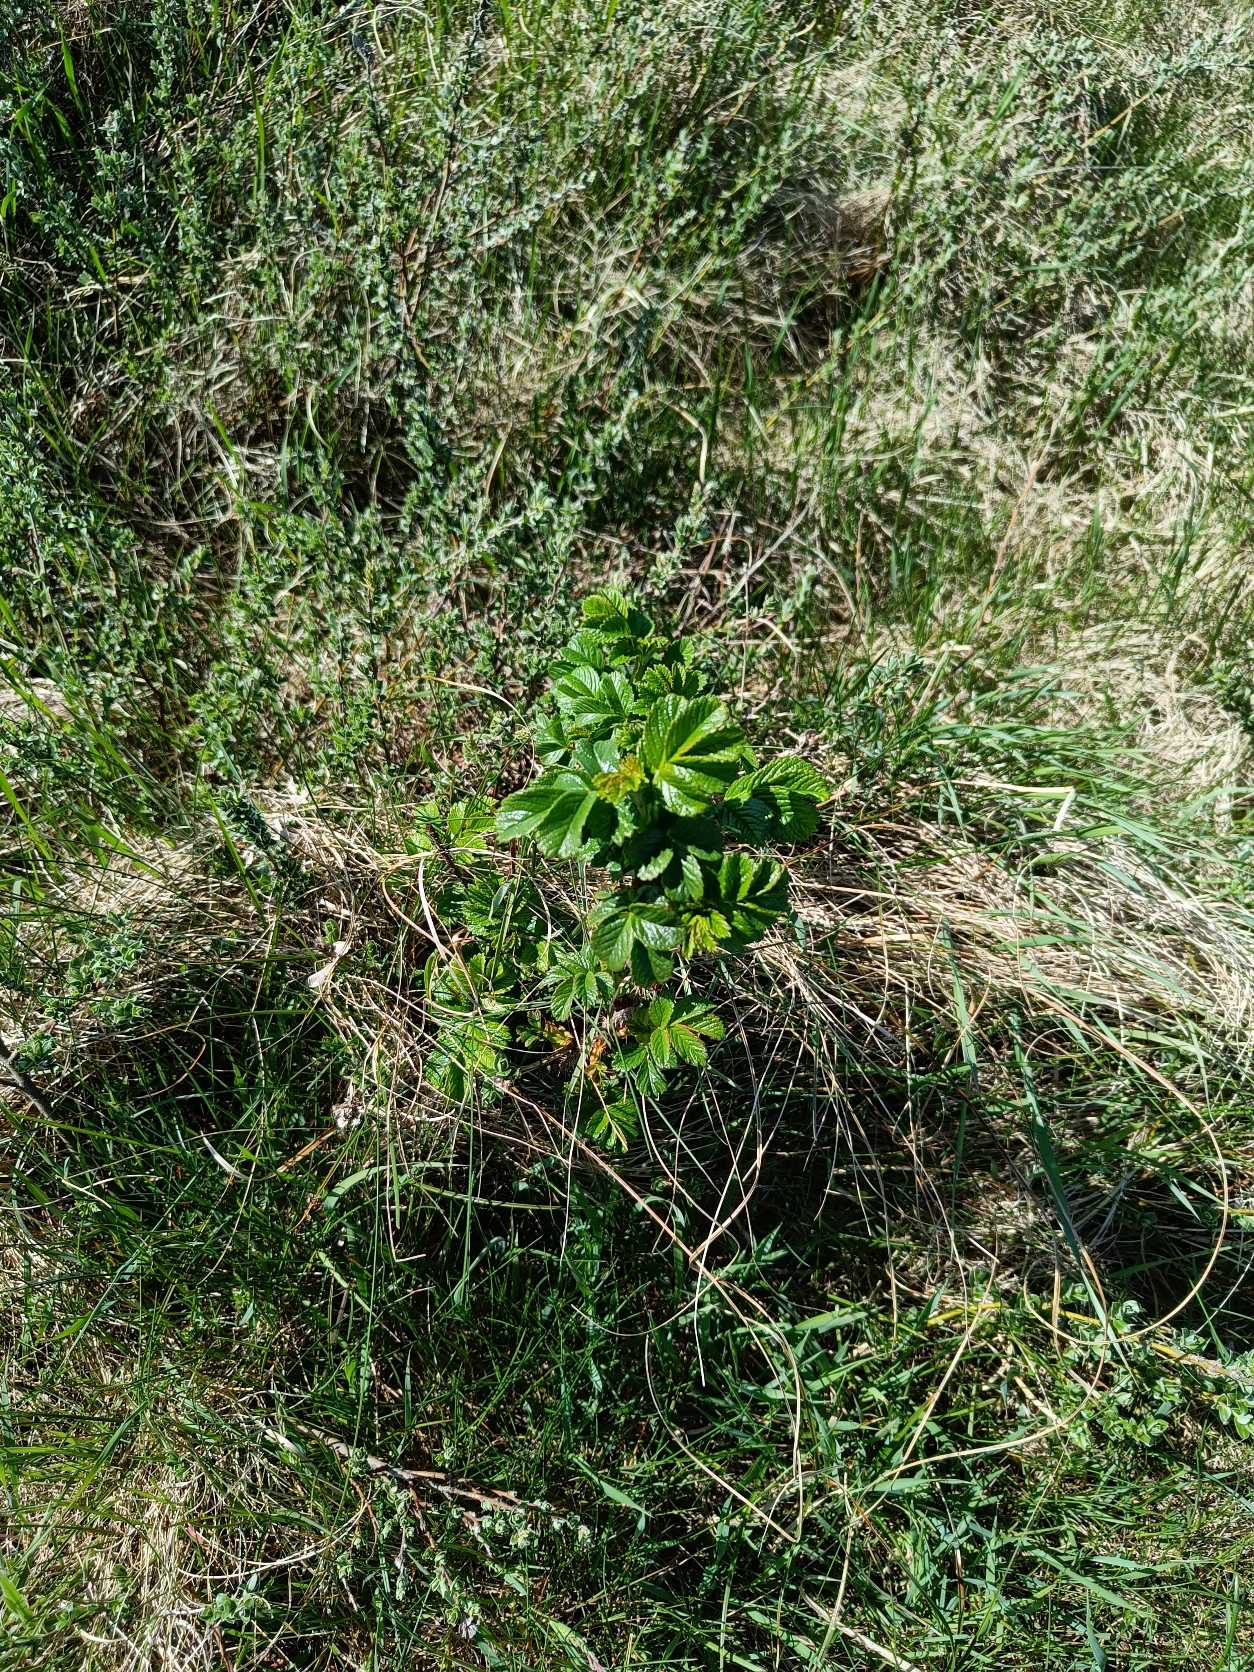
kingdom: Plantae
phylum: Tracheophyta
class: Magnoliopsida
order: Rosales
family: Rosaceae
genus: Rosa
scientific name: Rosa rugosa
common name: Rynket rose
